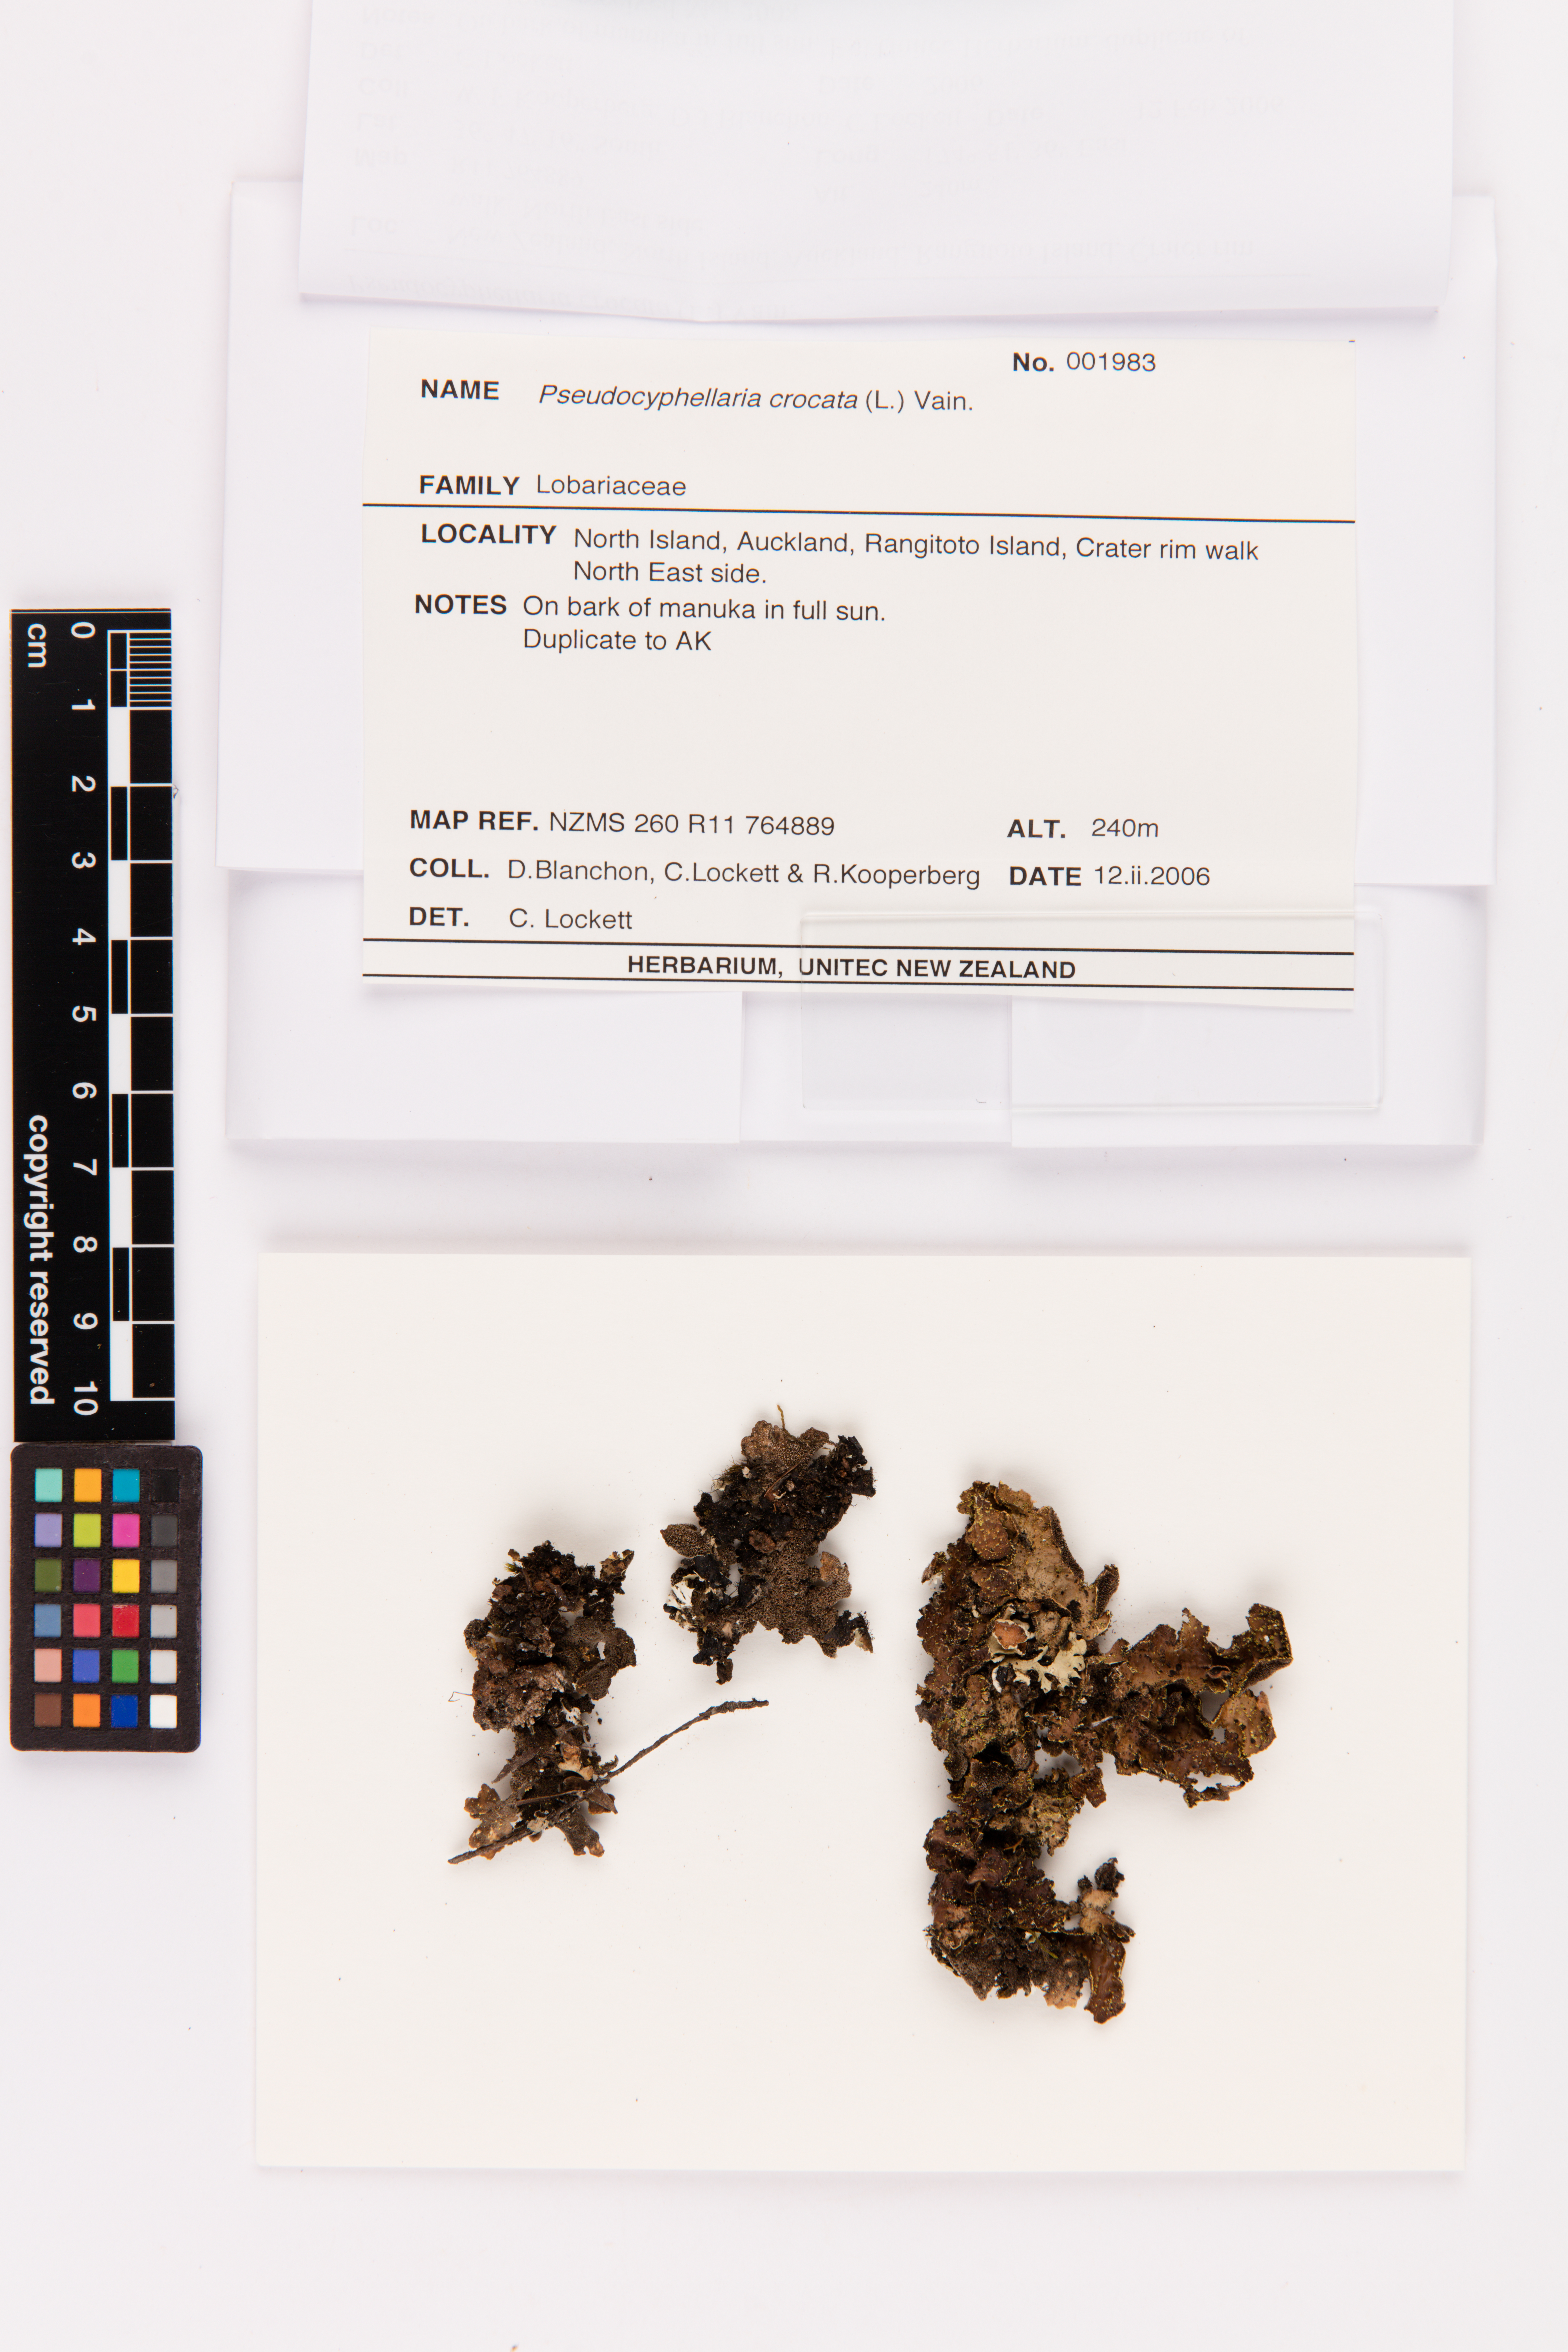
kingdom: Fungi
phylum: Ascomycota
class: Lecanoromycetes
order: Peltigerales
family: Lobariaceae
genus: Pseudocyphellaria
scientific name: Pseudocyphellaria crocata
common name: Golden specklebelly
